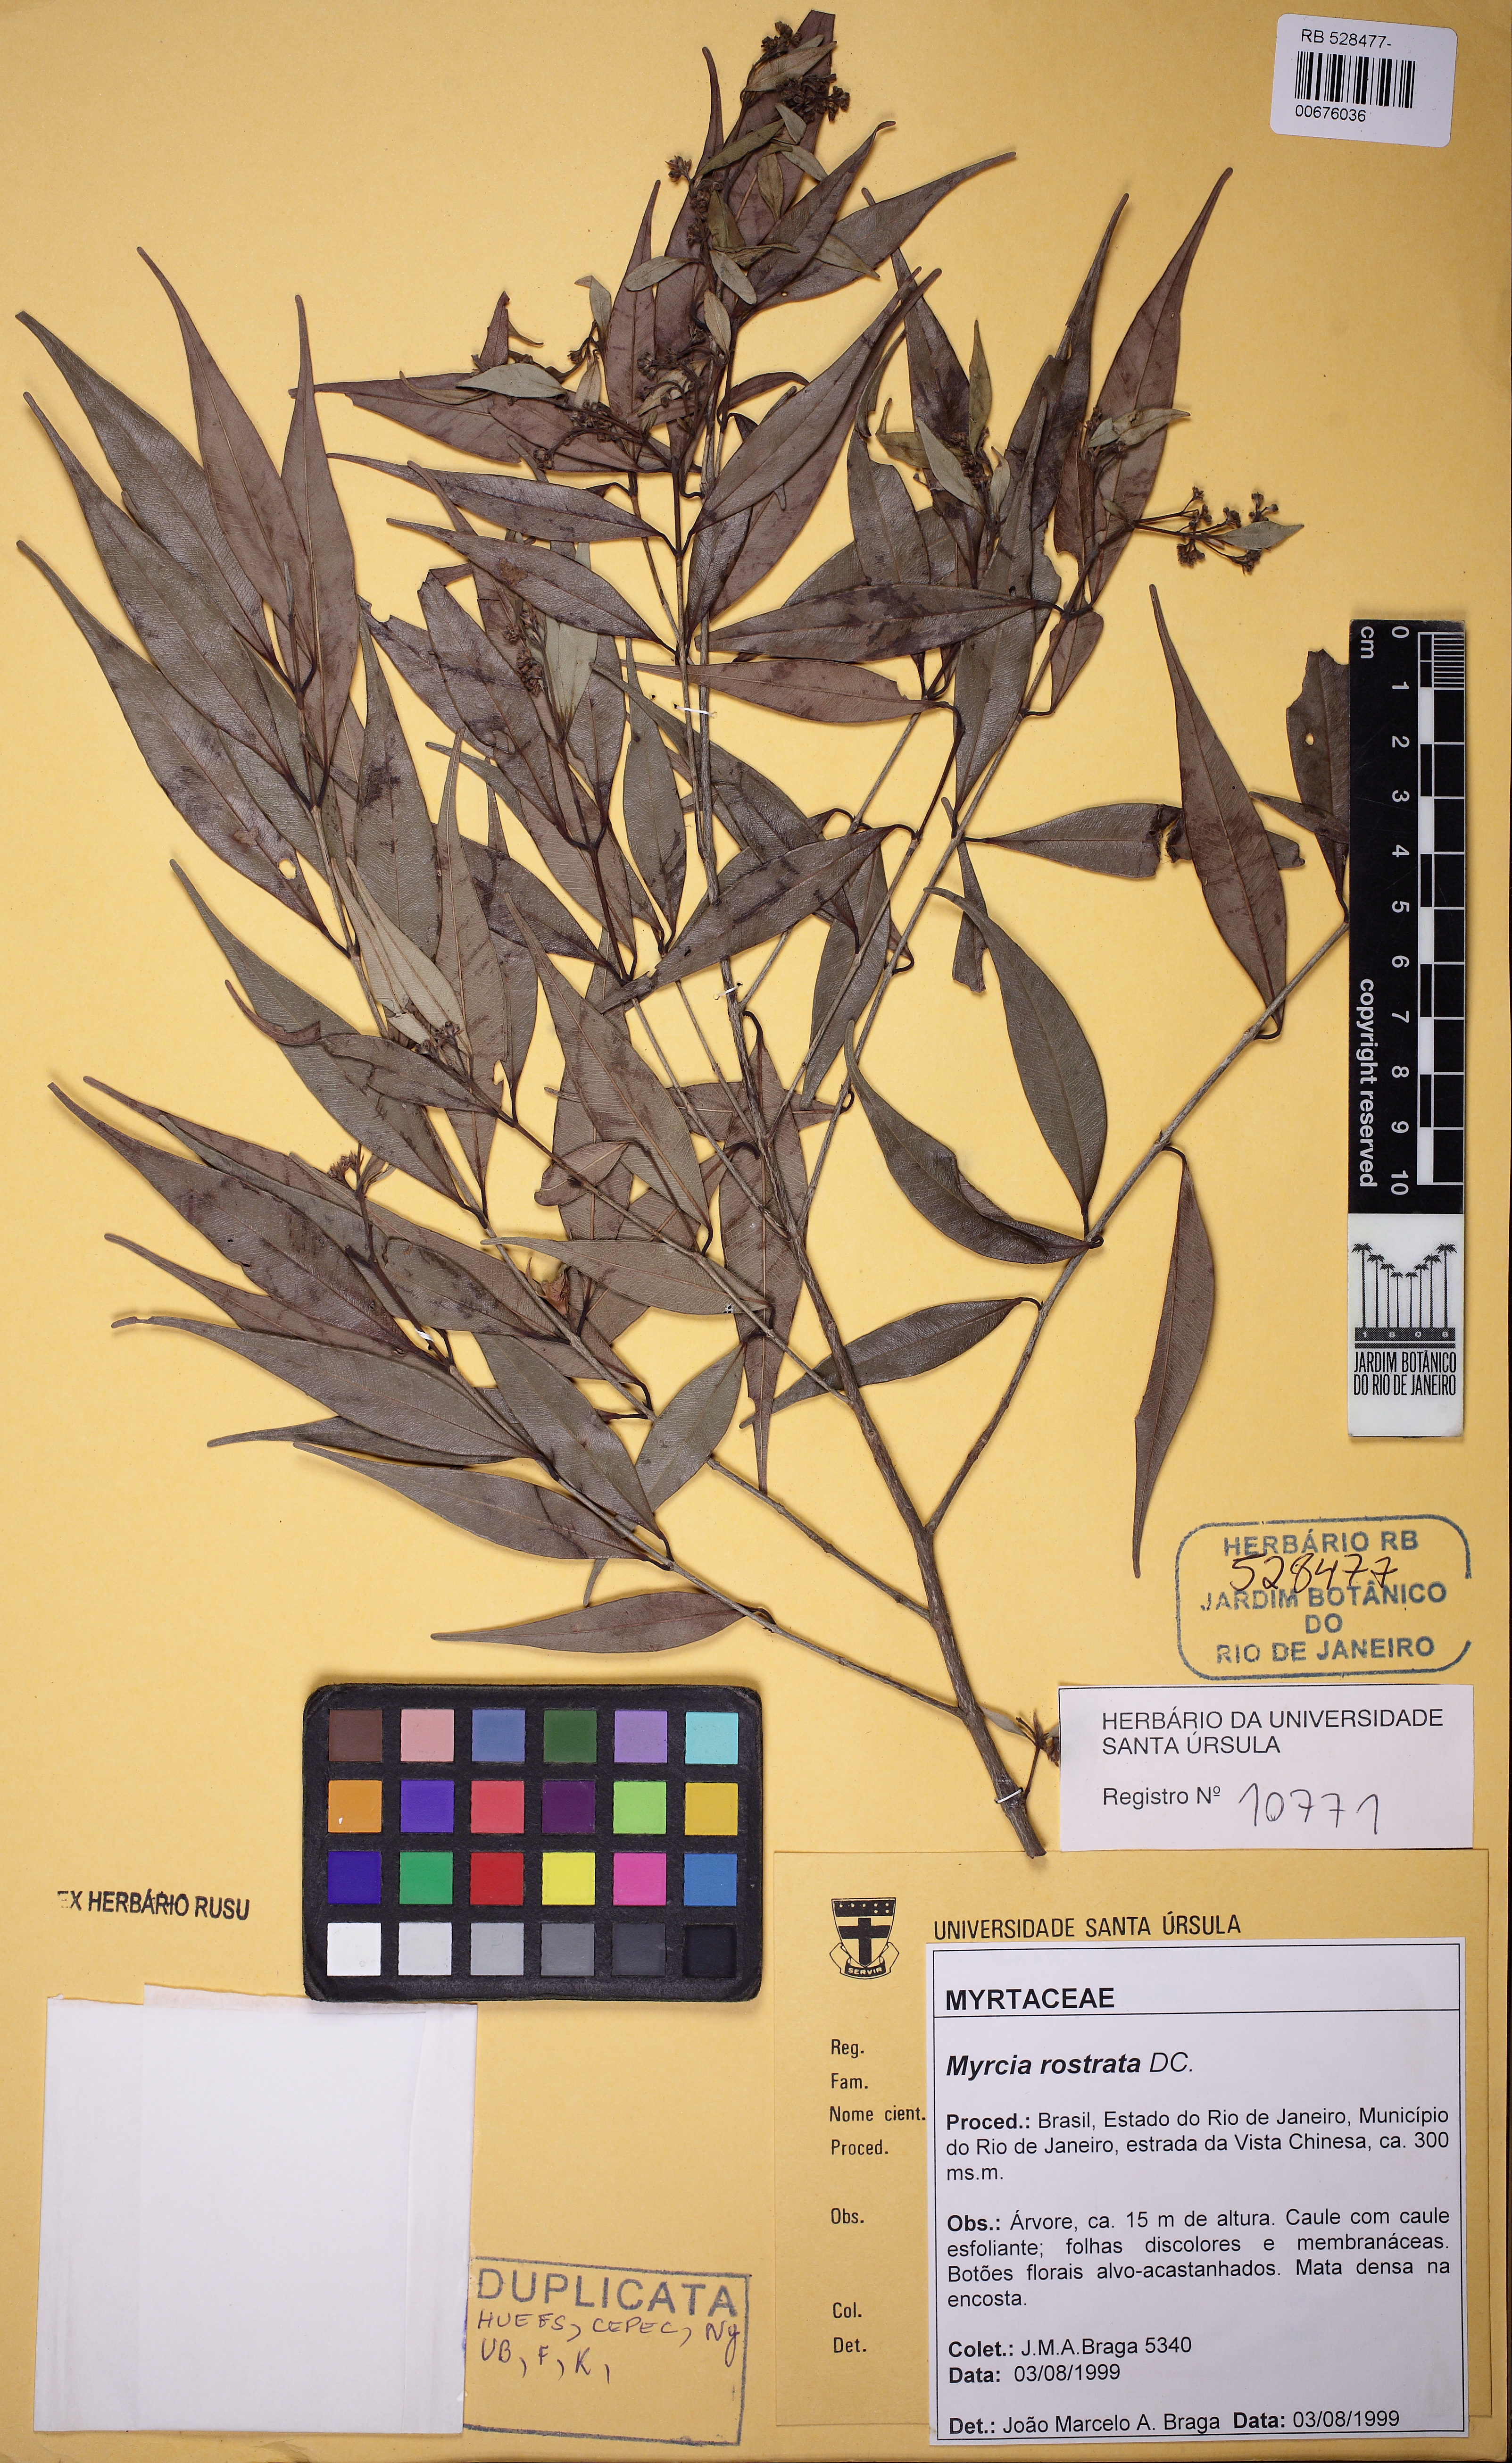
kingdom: Plantae
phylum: Tracheophyta
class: Magnoliopsida
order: Myrtales
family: Myrtaceae
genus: Myrcia
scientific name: Myrcia splendens
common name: Surinam cherry
